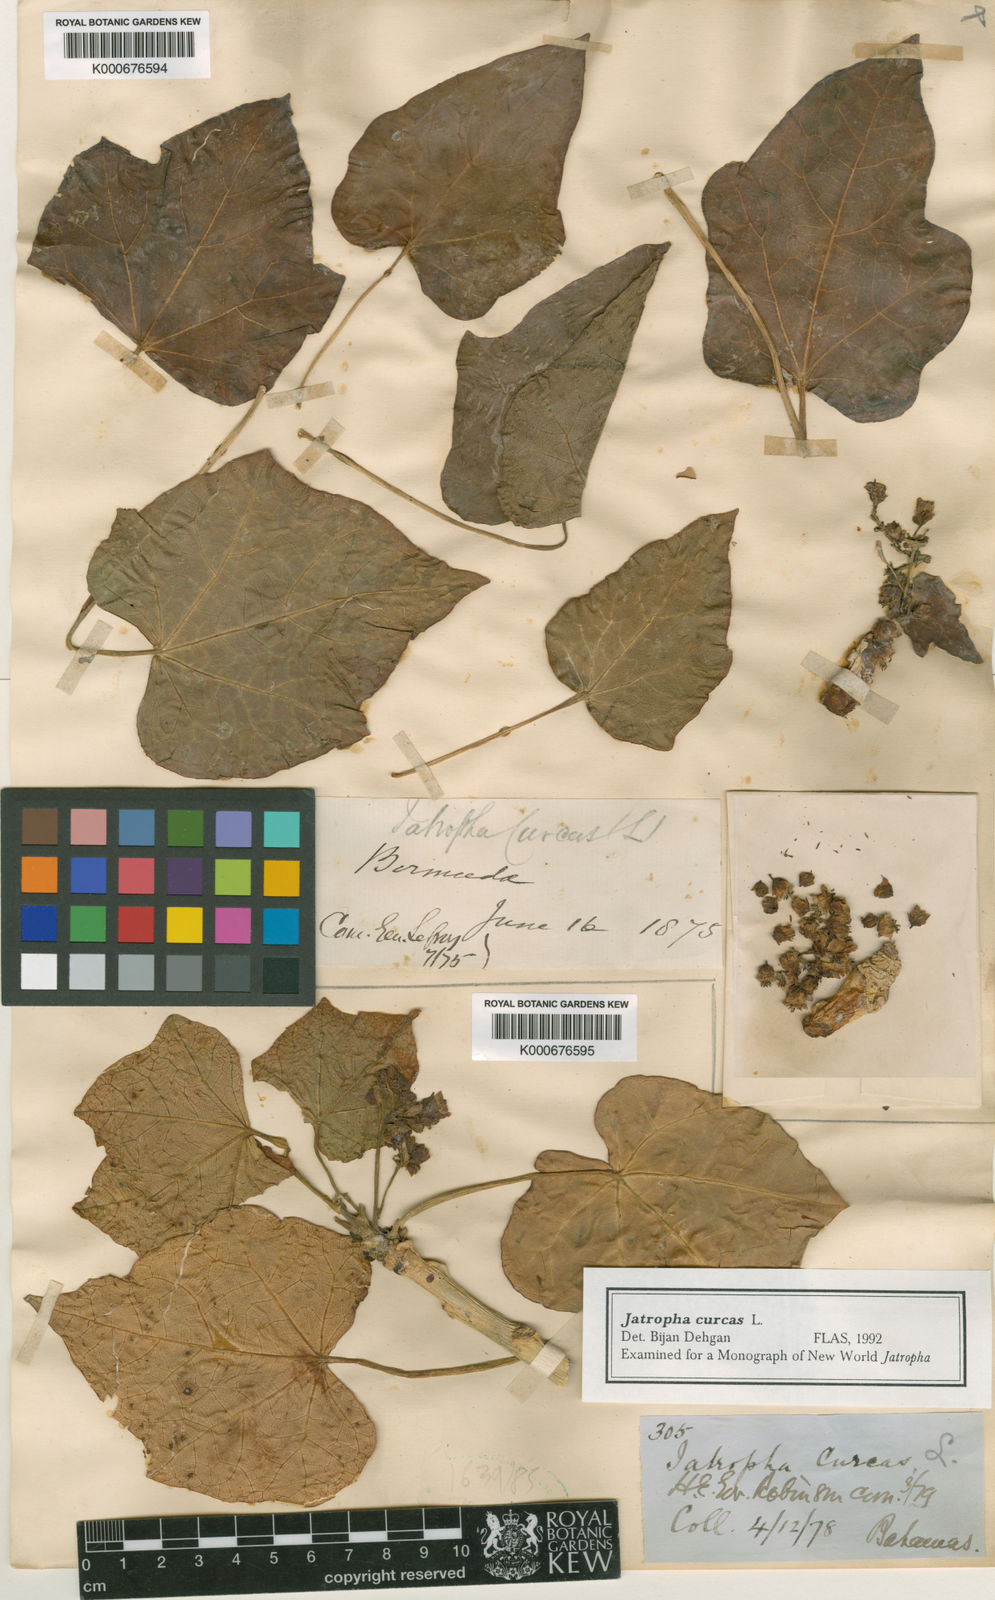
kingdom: Plantae
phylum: Tracheophyta
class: Magnoliopsida
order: Malpighiales
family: Euphorbiaceae
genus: Jatropha
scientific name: Jatropha curcas
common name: Barbados nut
